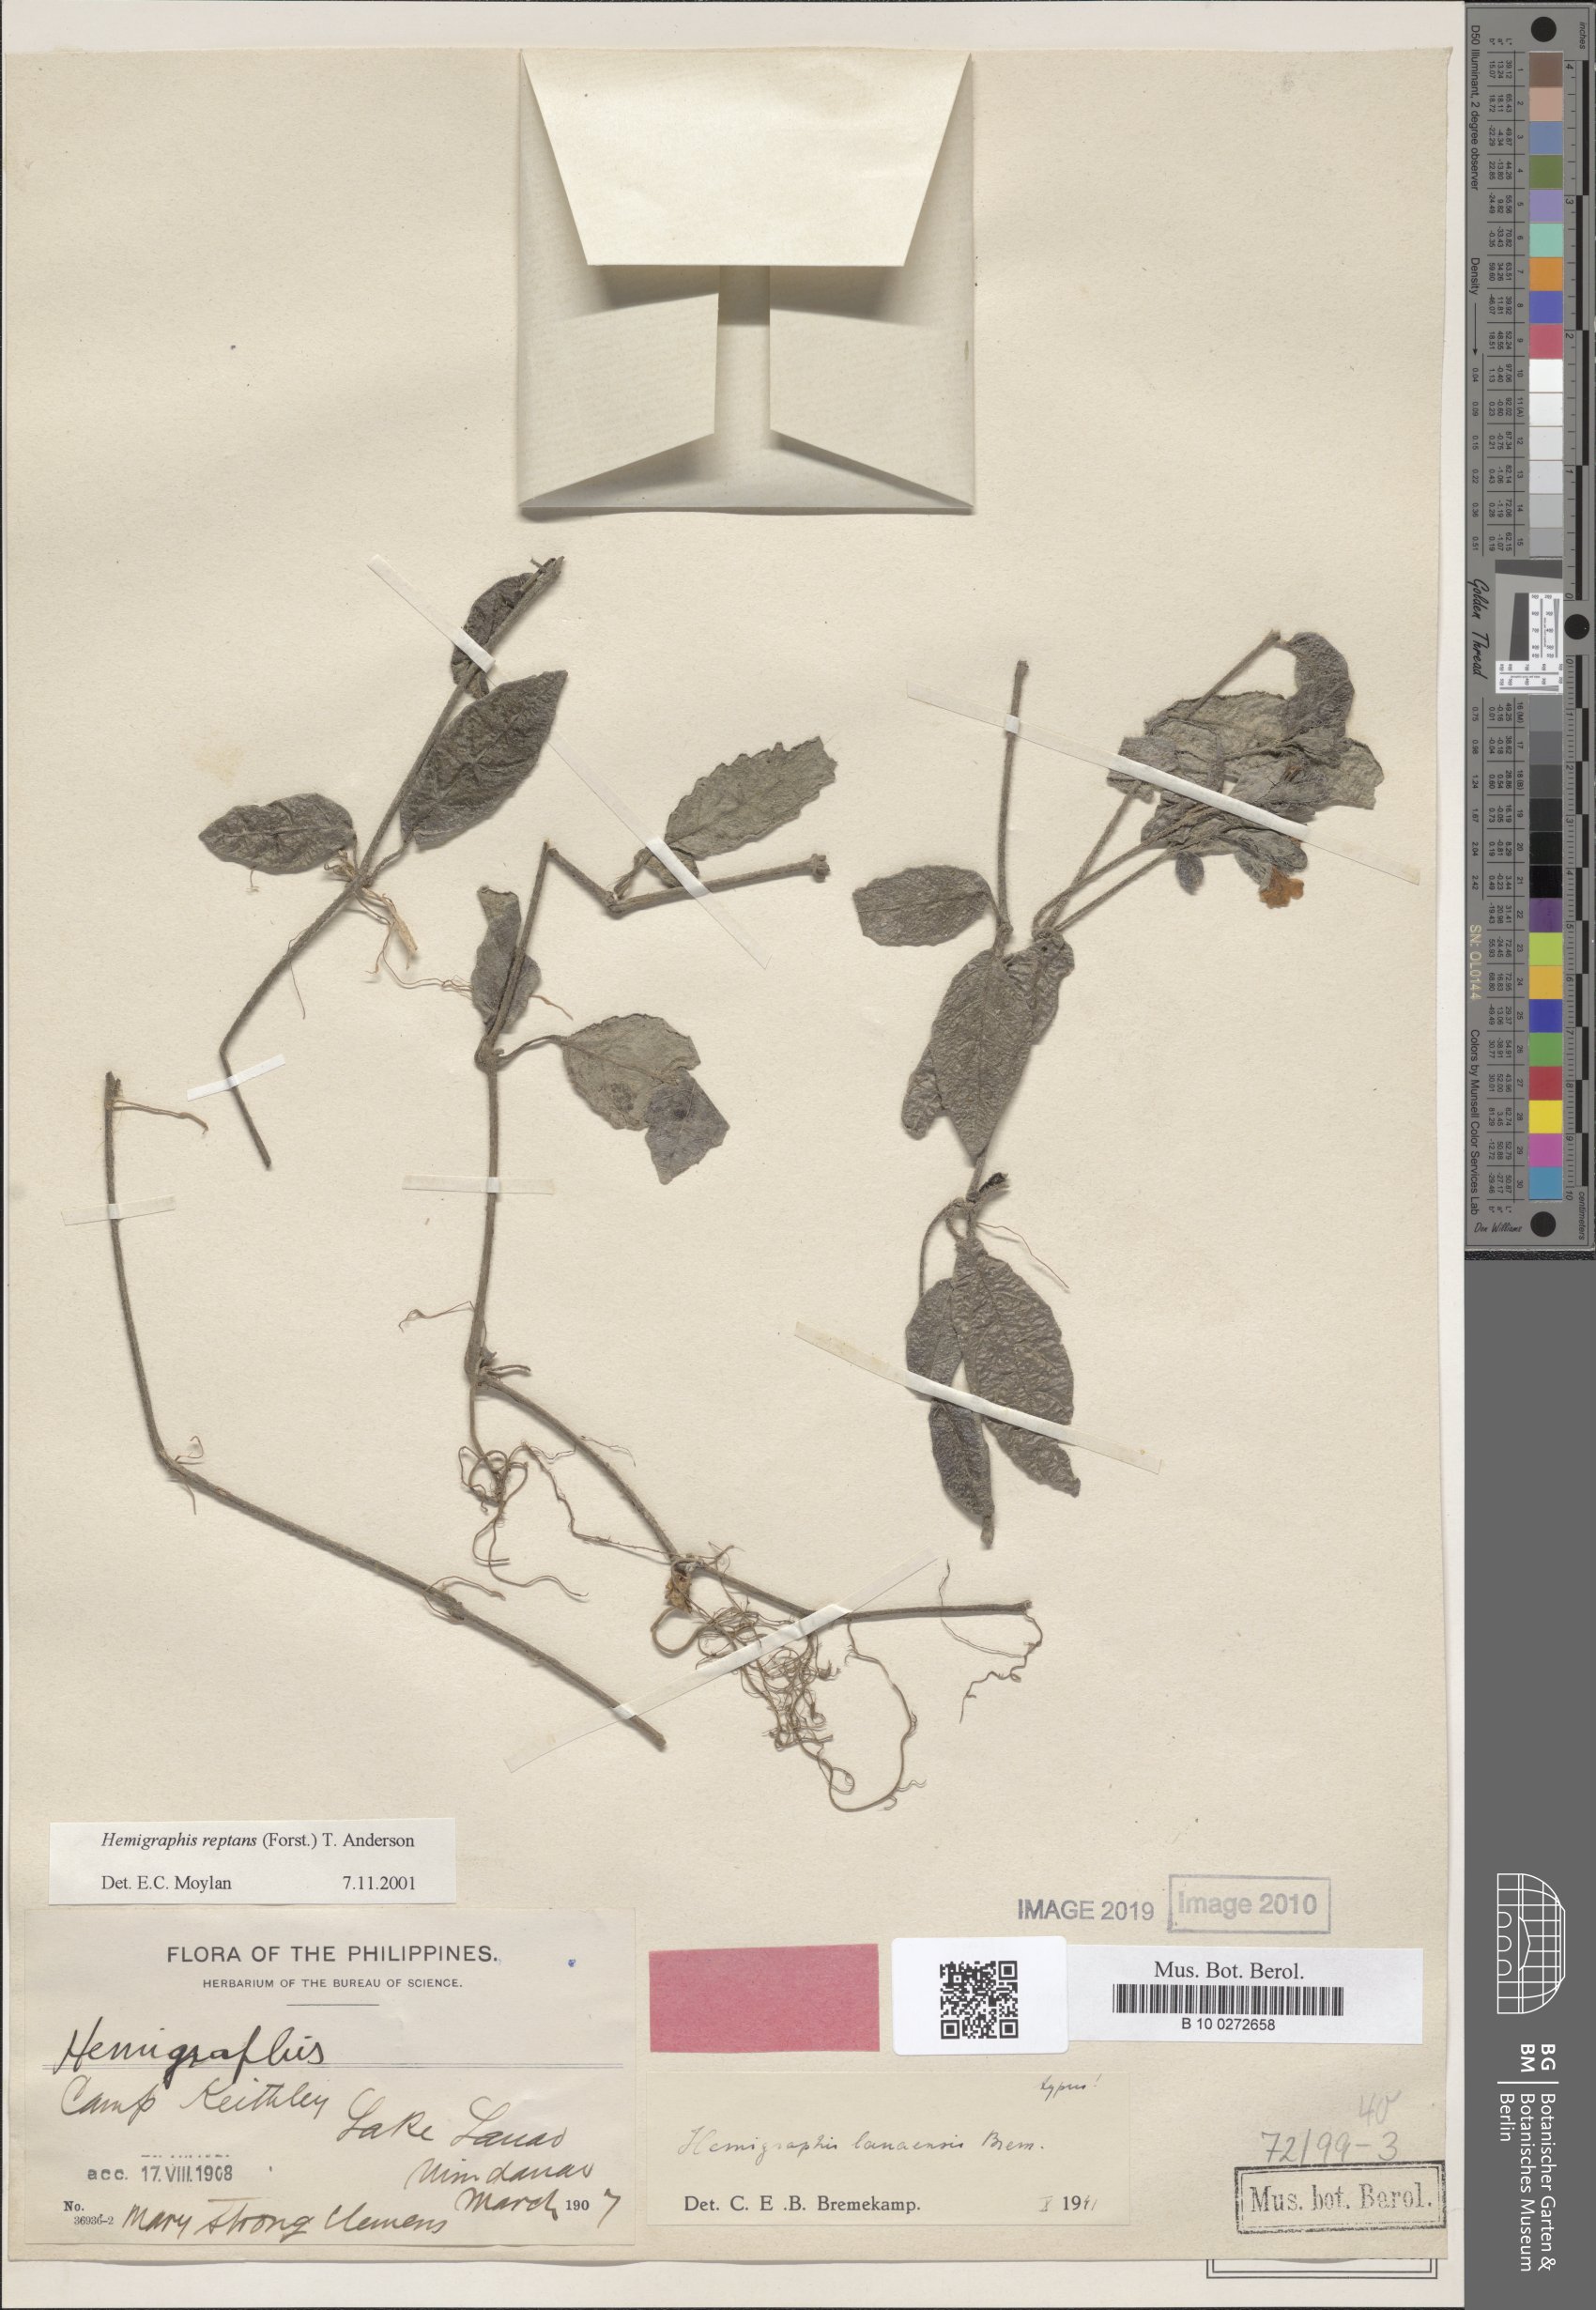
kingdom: Plantae
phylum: Tracheophyta
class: Magnoliopsida
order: Lamiales
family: Acanthaceae
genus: Strobilanthes
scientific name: Strobilanthes reptans
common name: Acanthaceae
